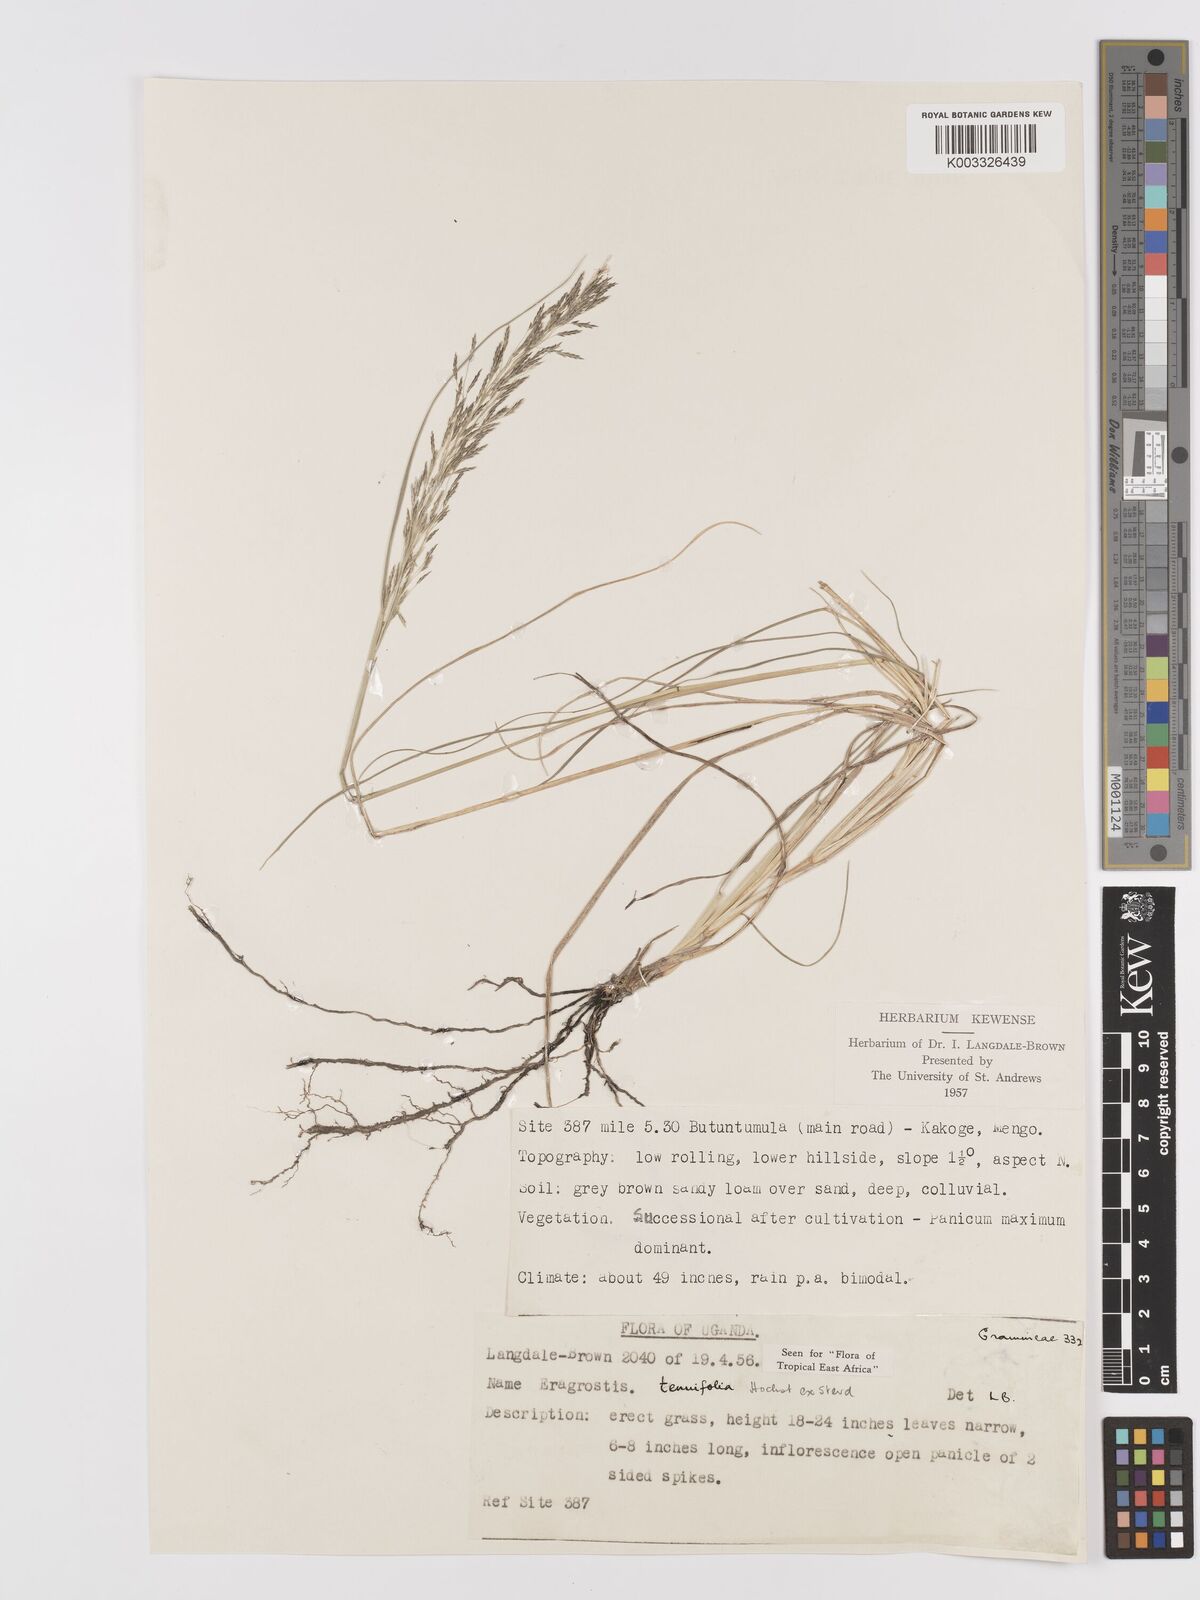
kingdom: Plantae
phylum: Tracheophyta
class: Liliopsida
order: Poales
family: Poaceae
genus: Eragrostis
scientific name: Eragrostis tenuifolia
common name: Elastic grass
